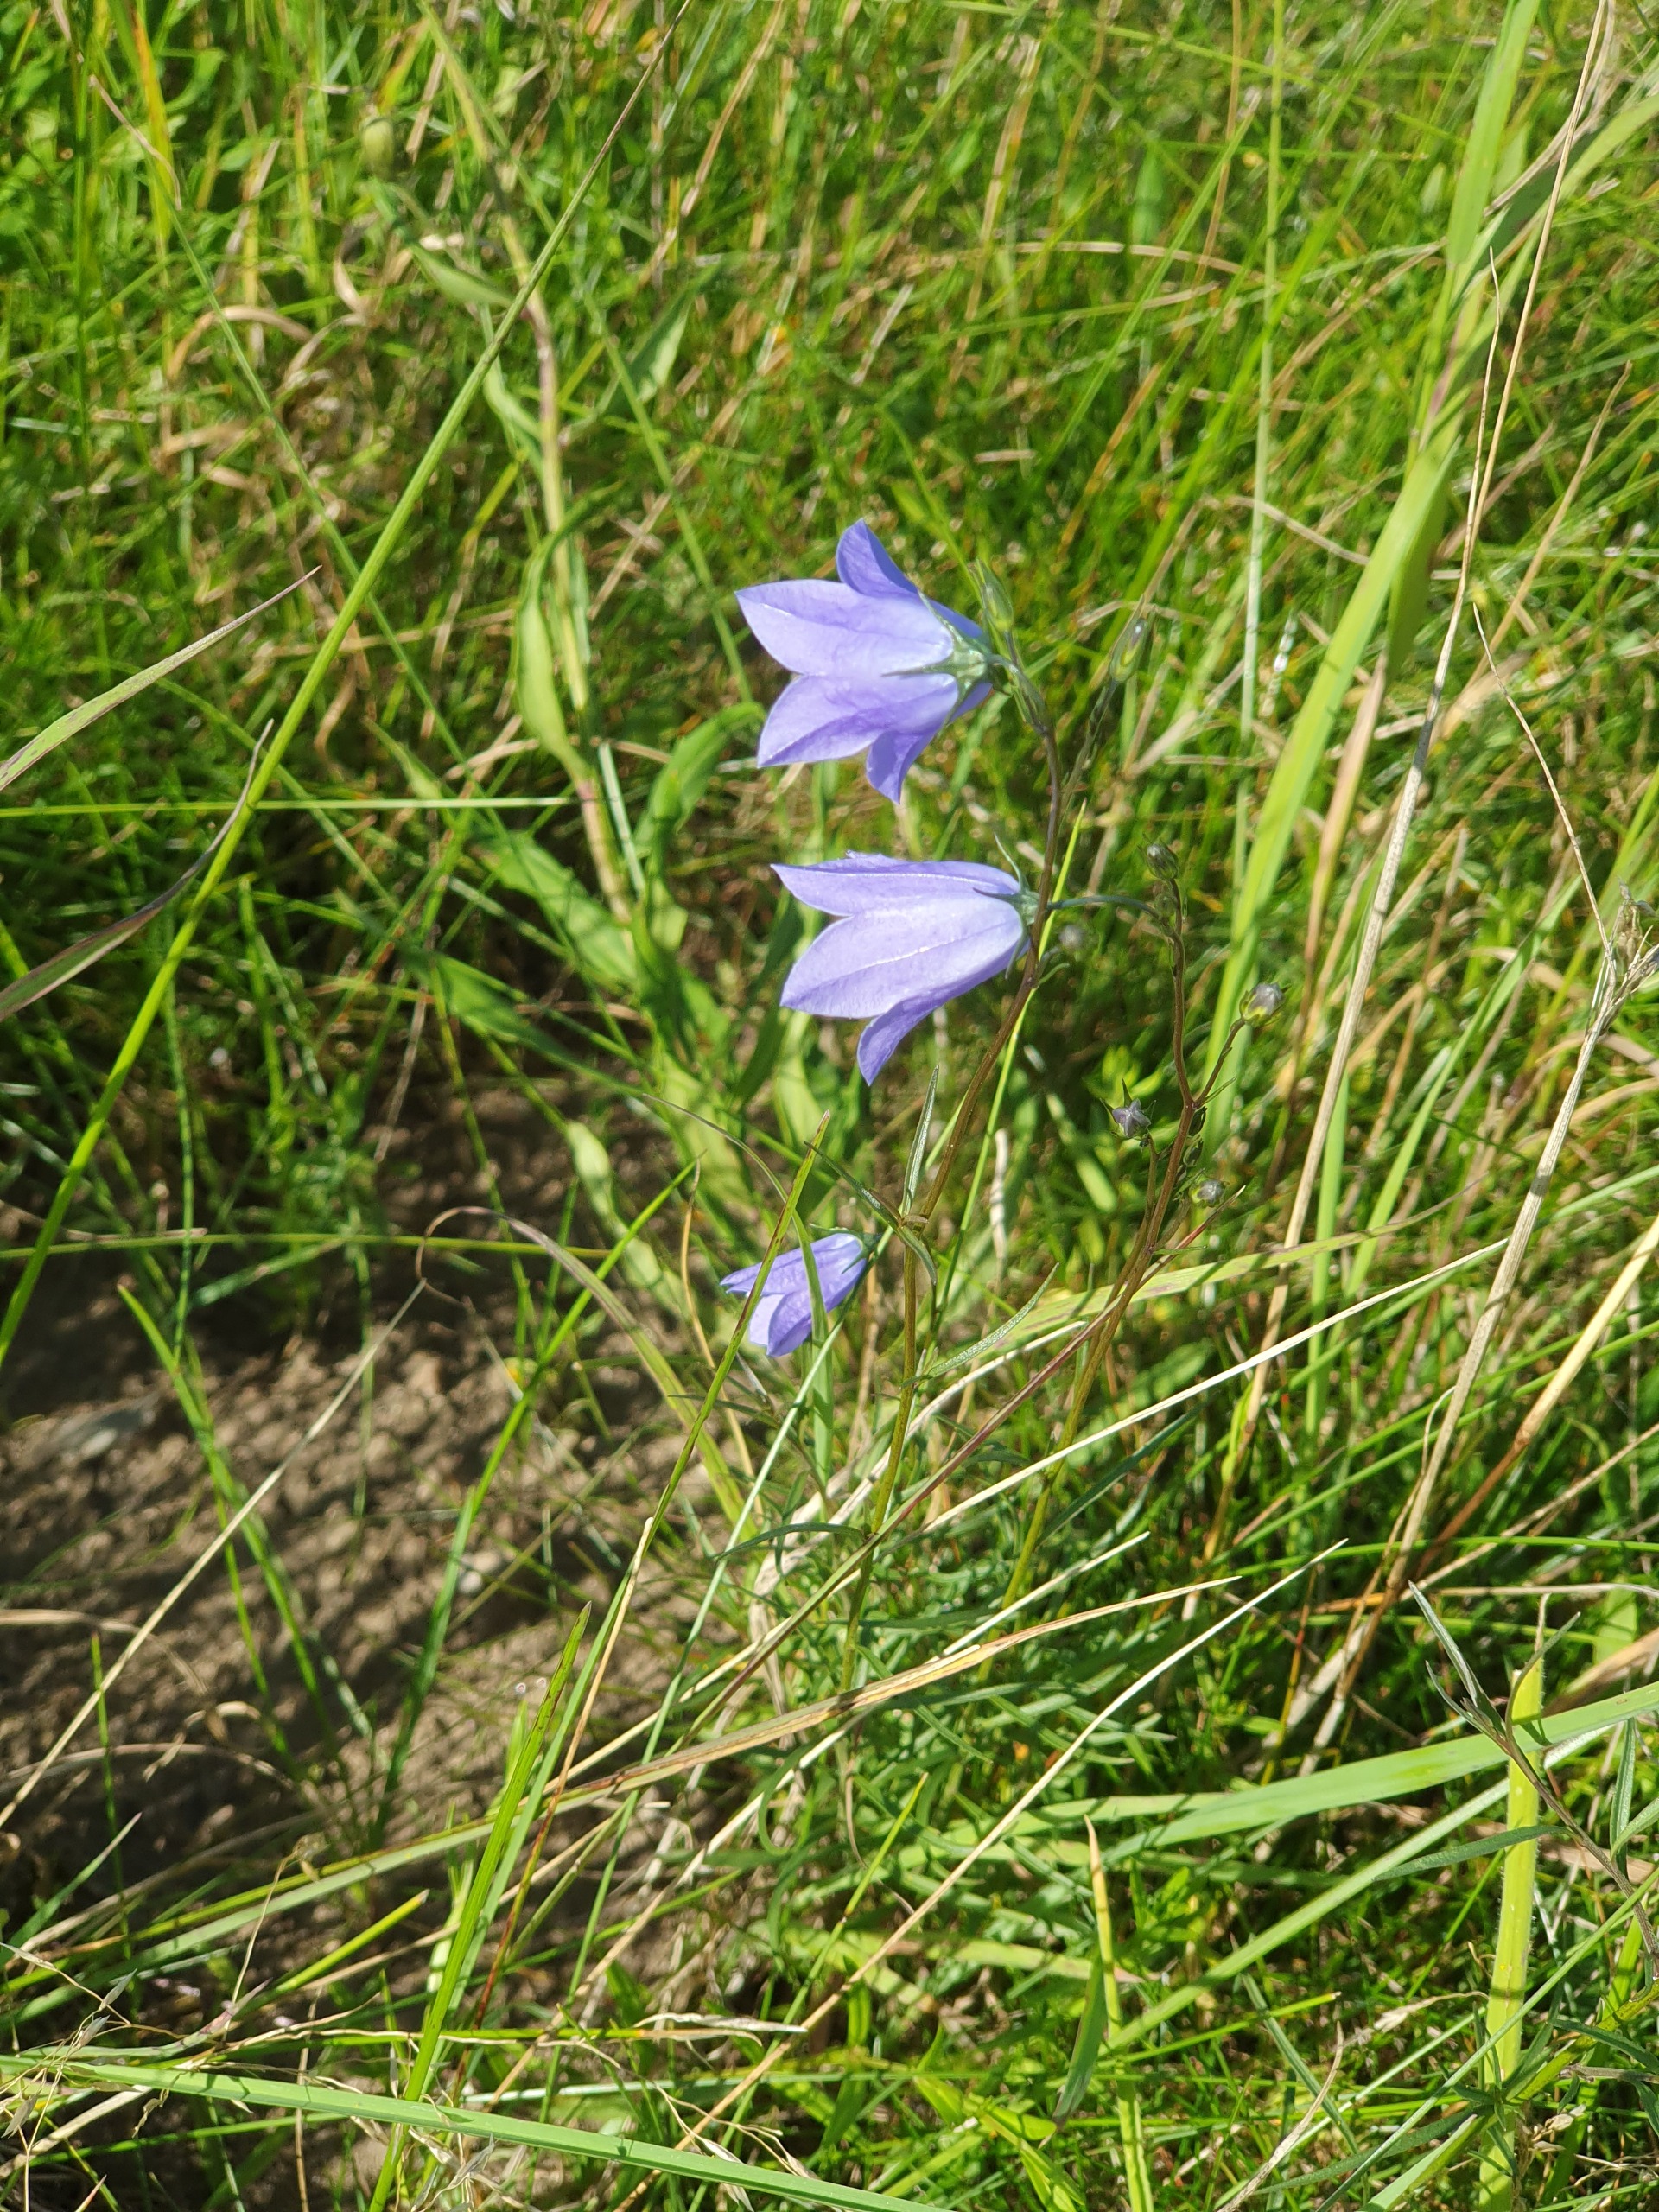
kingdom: Plantae
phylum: Tracheophyta
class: Magnoliopsida
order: Asterales
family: Campanulaceae
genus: Campanula
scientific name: Campanula rotundifolia
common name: Liden klokke
